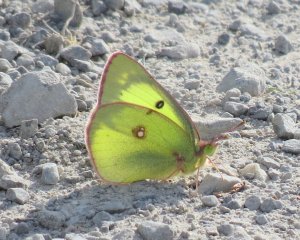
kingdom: Animalia
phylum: Arthropoda
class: Insecta
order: Lepidoptera
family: Pieridae
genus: Colias
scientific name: Colias philodice
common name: Clouded Sulphur
